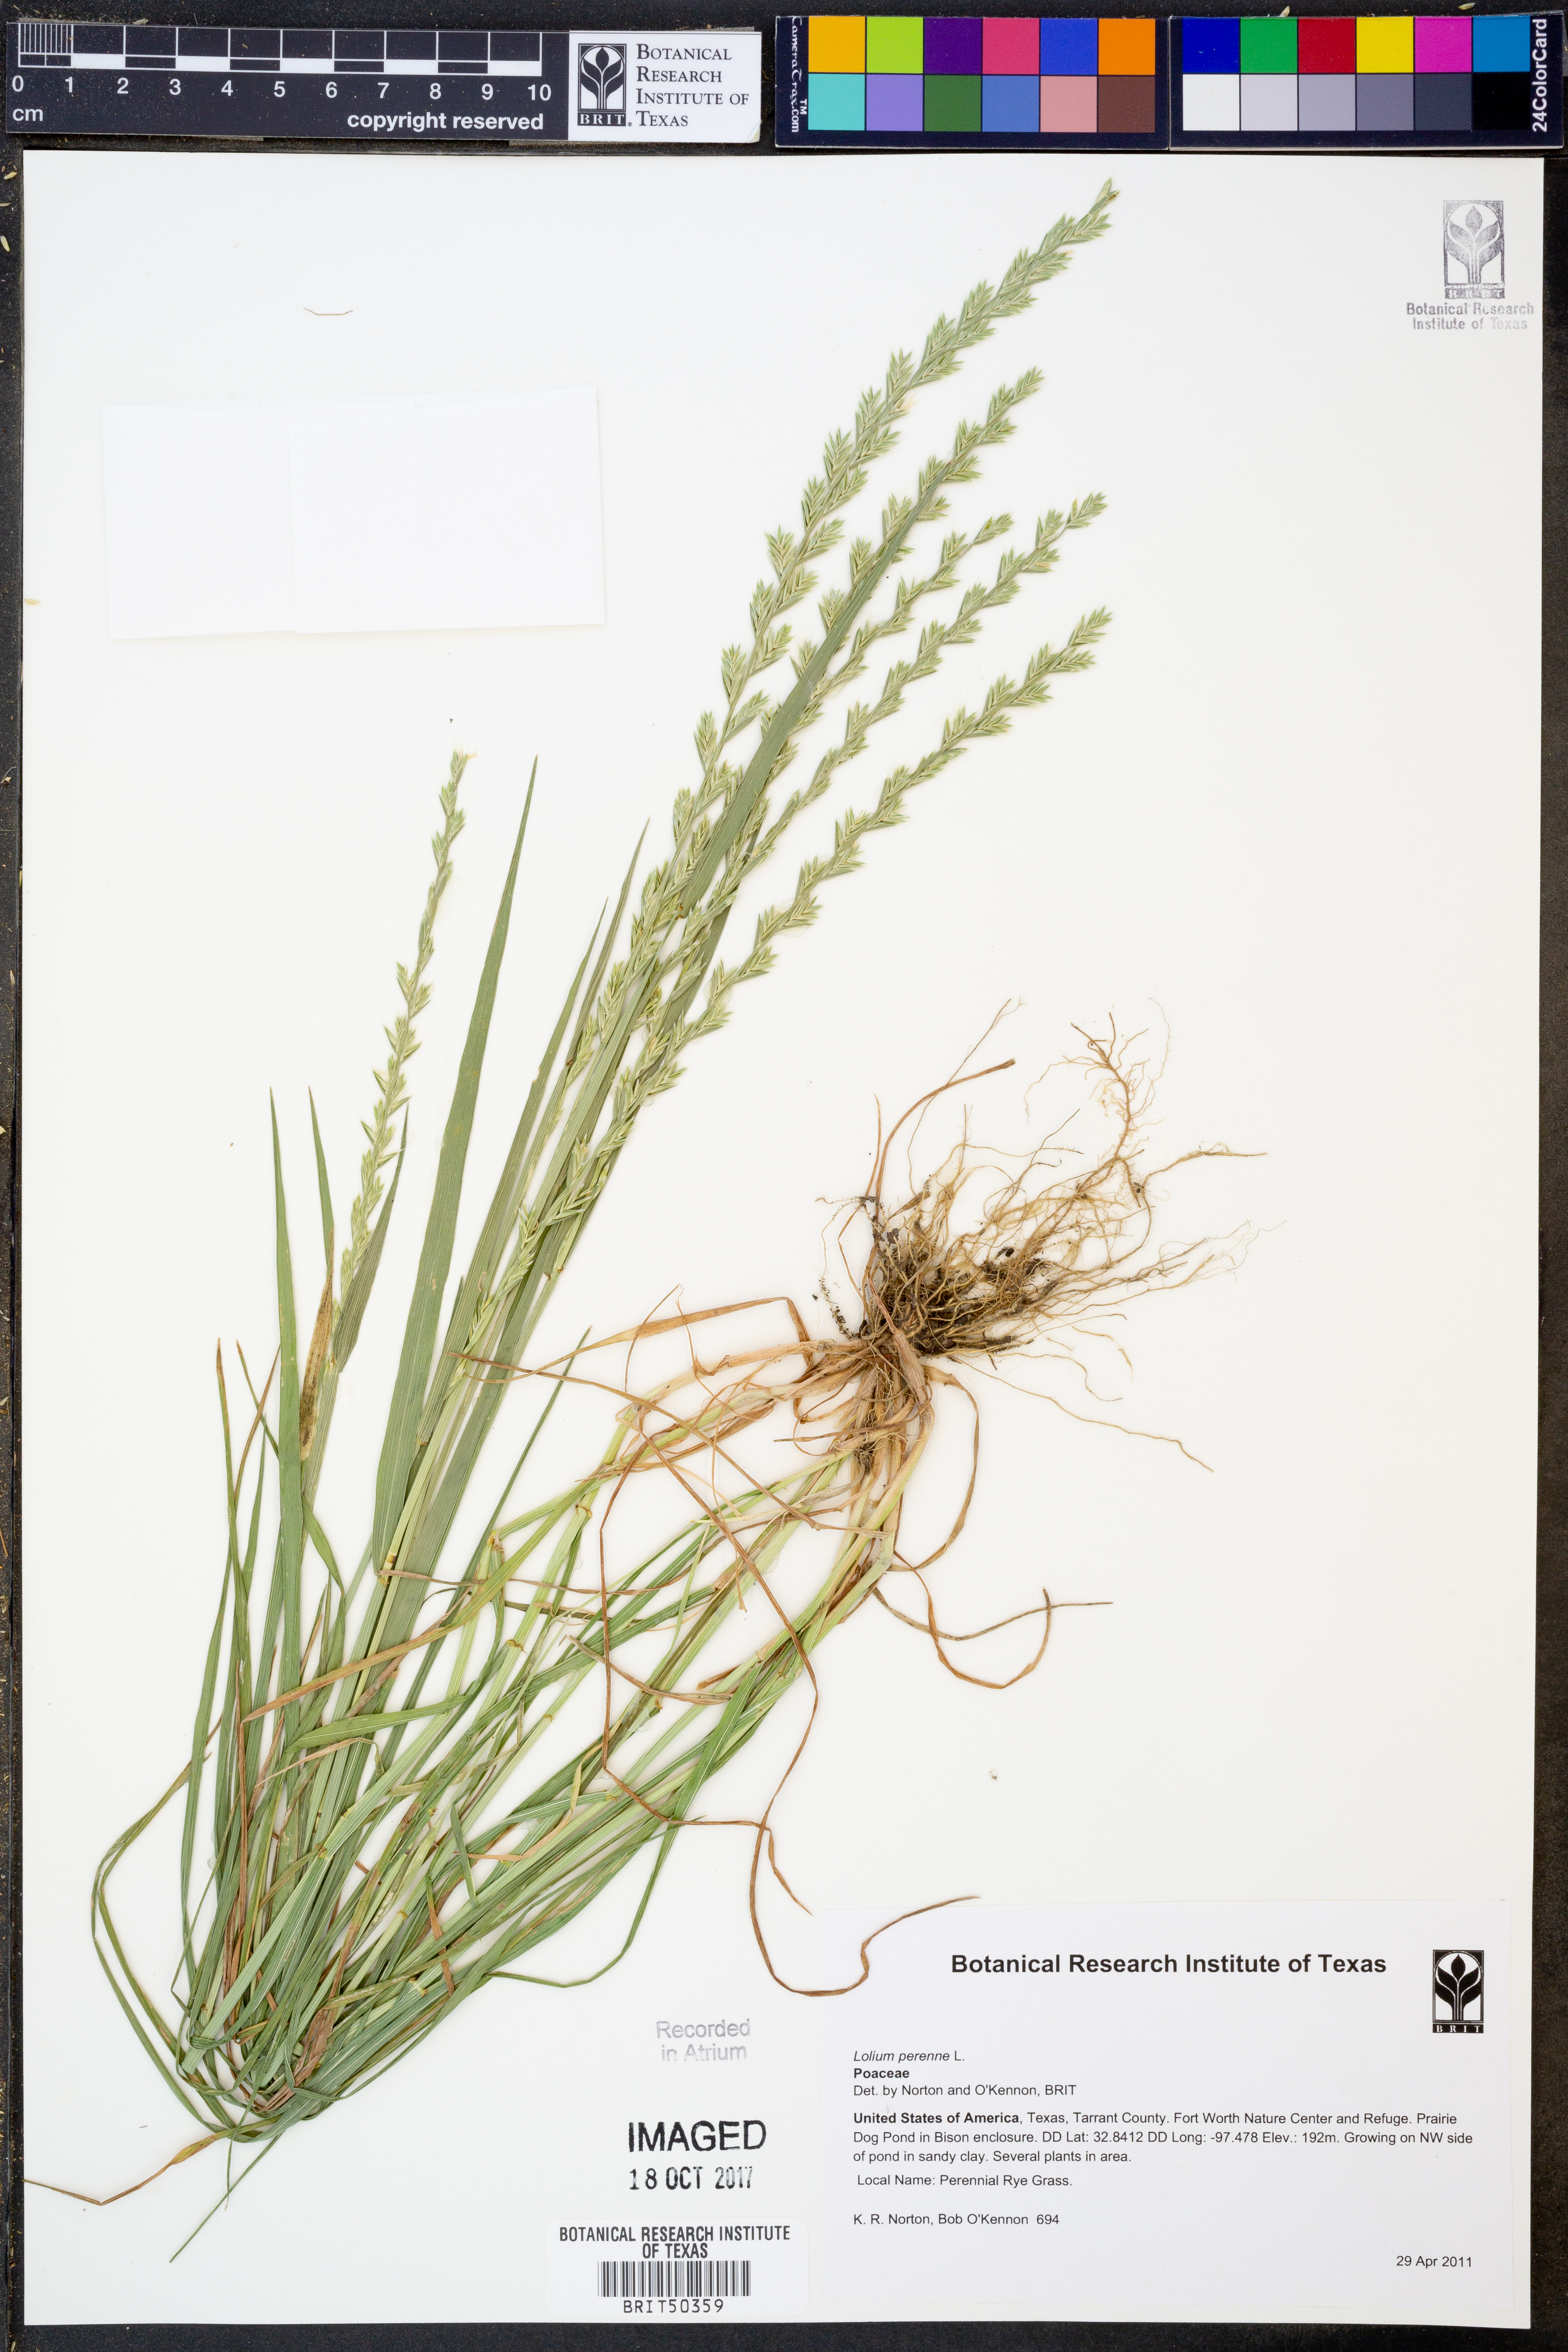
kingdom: Plantae
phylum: Tracheophyta
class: Liliopsida
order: Poales
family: Poaceae
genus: Lolium
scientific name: Lolium perenne
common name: Perennial ryegrass
